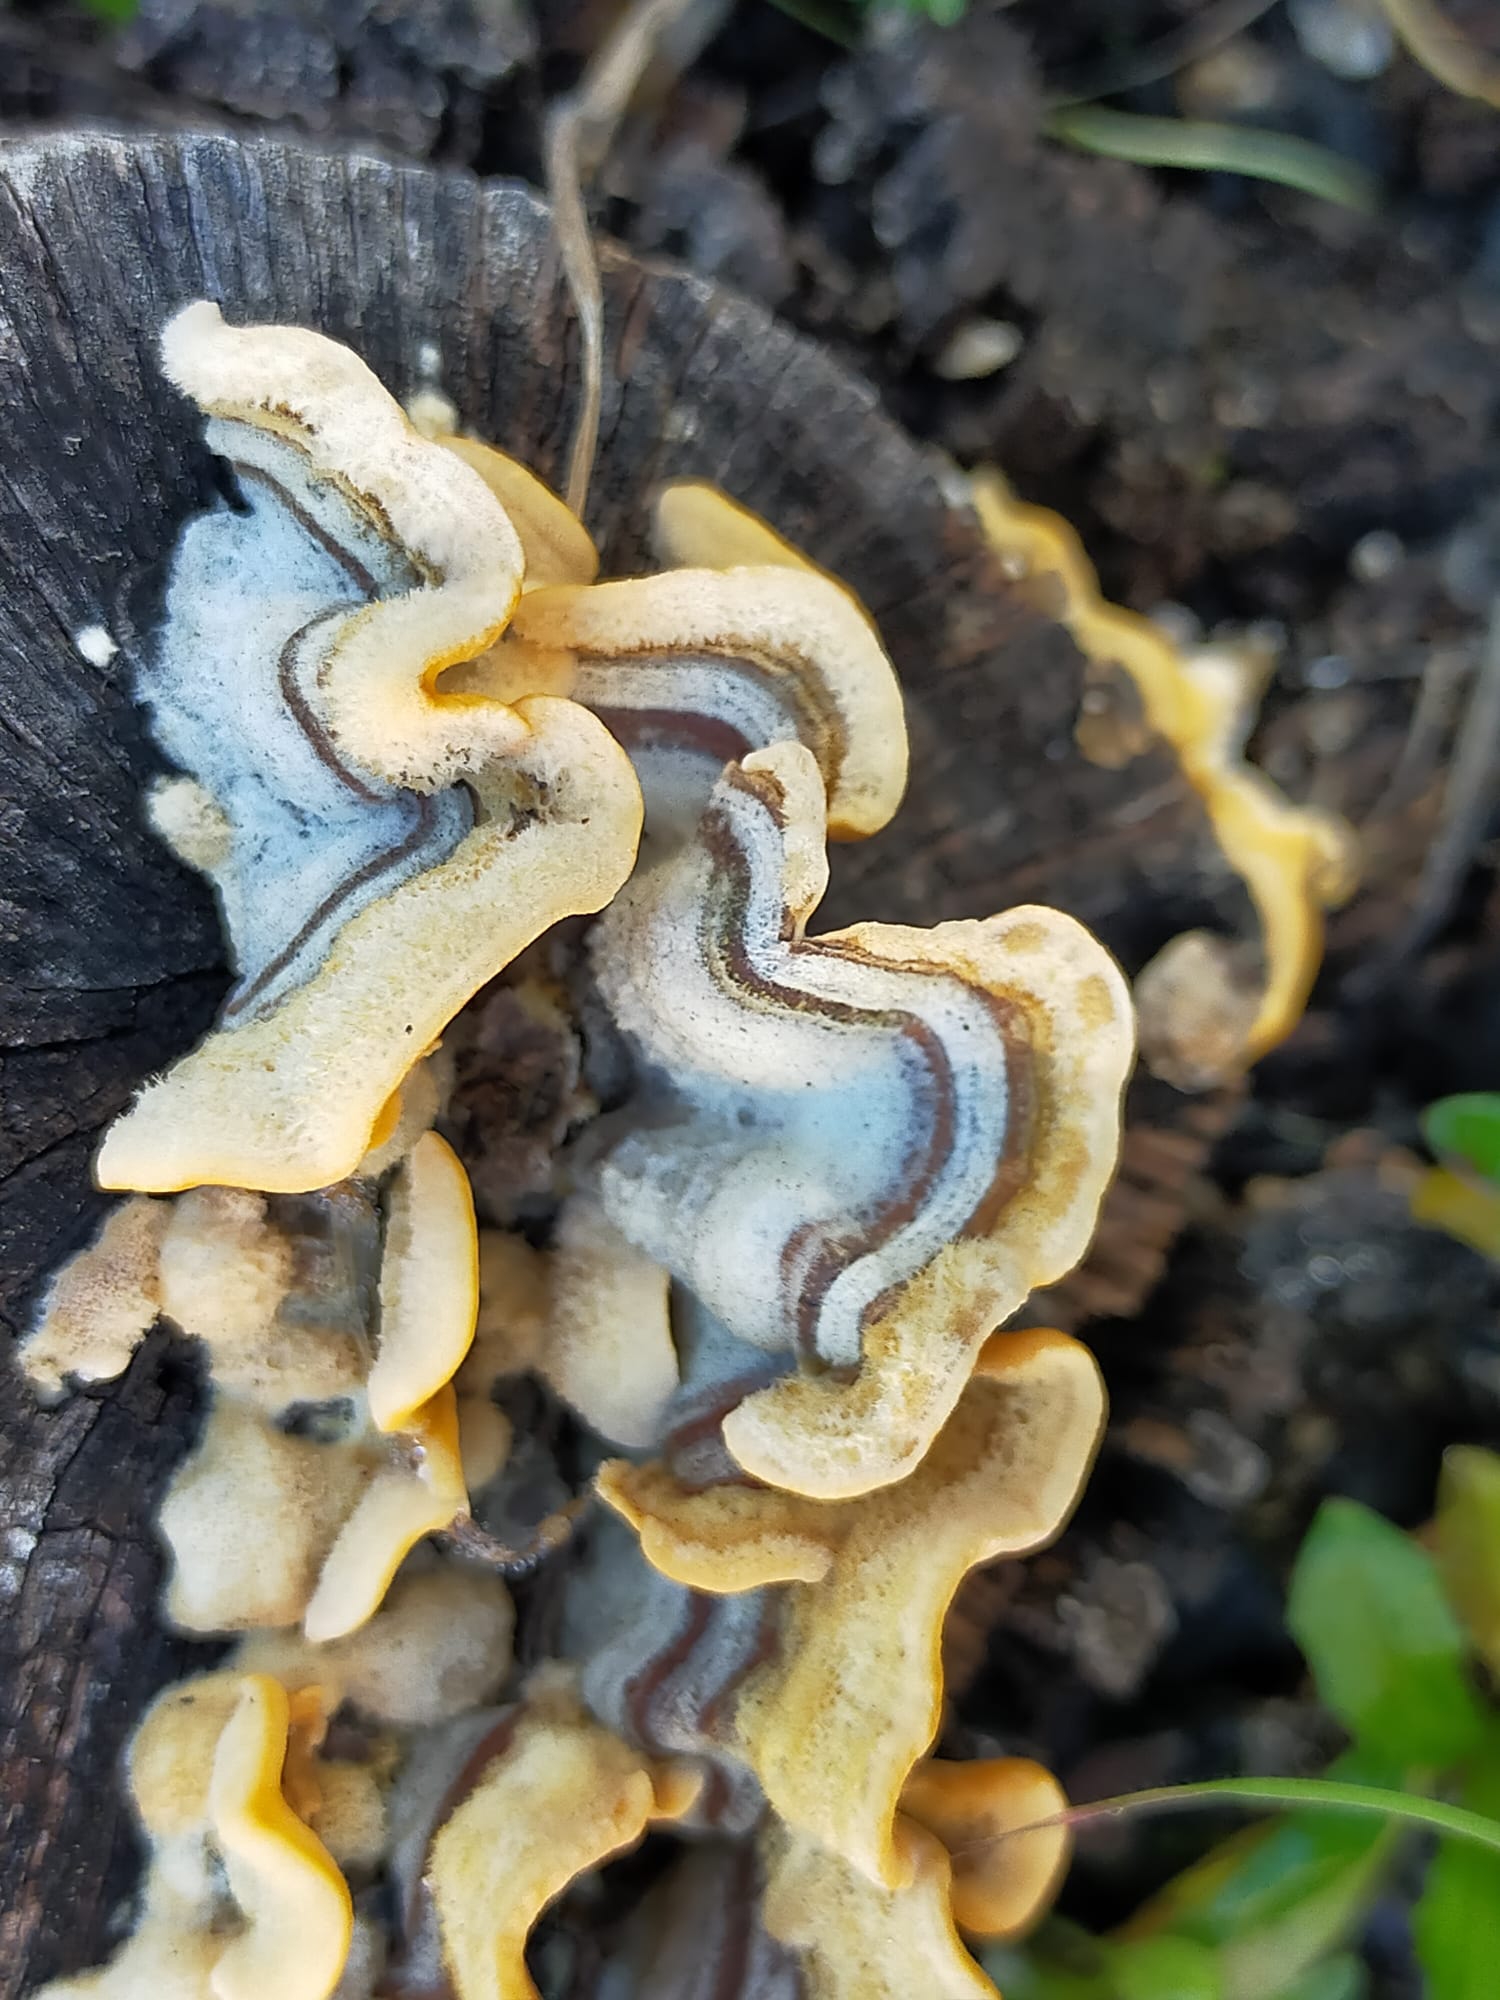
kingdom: Fungi
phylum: Basidiomycota
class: Agaricomycetes
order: Russulales
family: Stereaceae
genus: Stereum
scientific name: Stereum hirsutum
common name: håret lædersvamp
